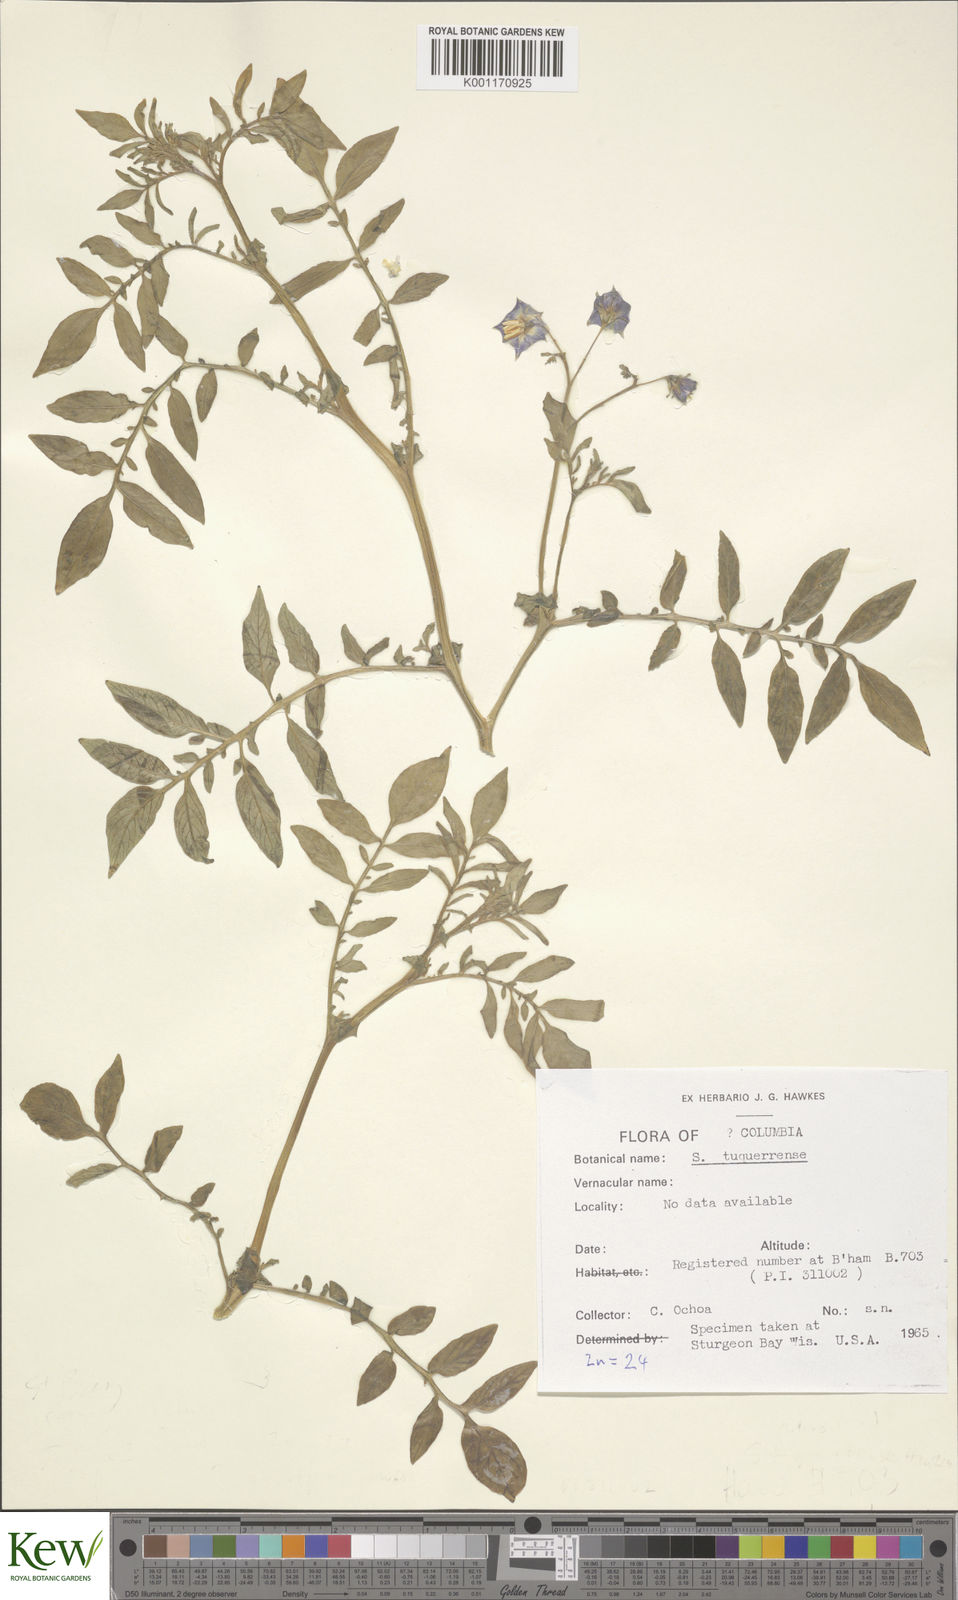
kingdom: Plantae
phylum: Tracheophyta
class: Magnoliopsida
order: Solanales
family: Solanaceae
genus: Solanum
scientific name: Solanum andreanum
